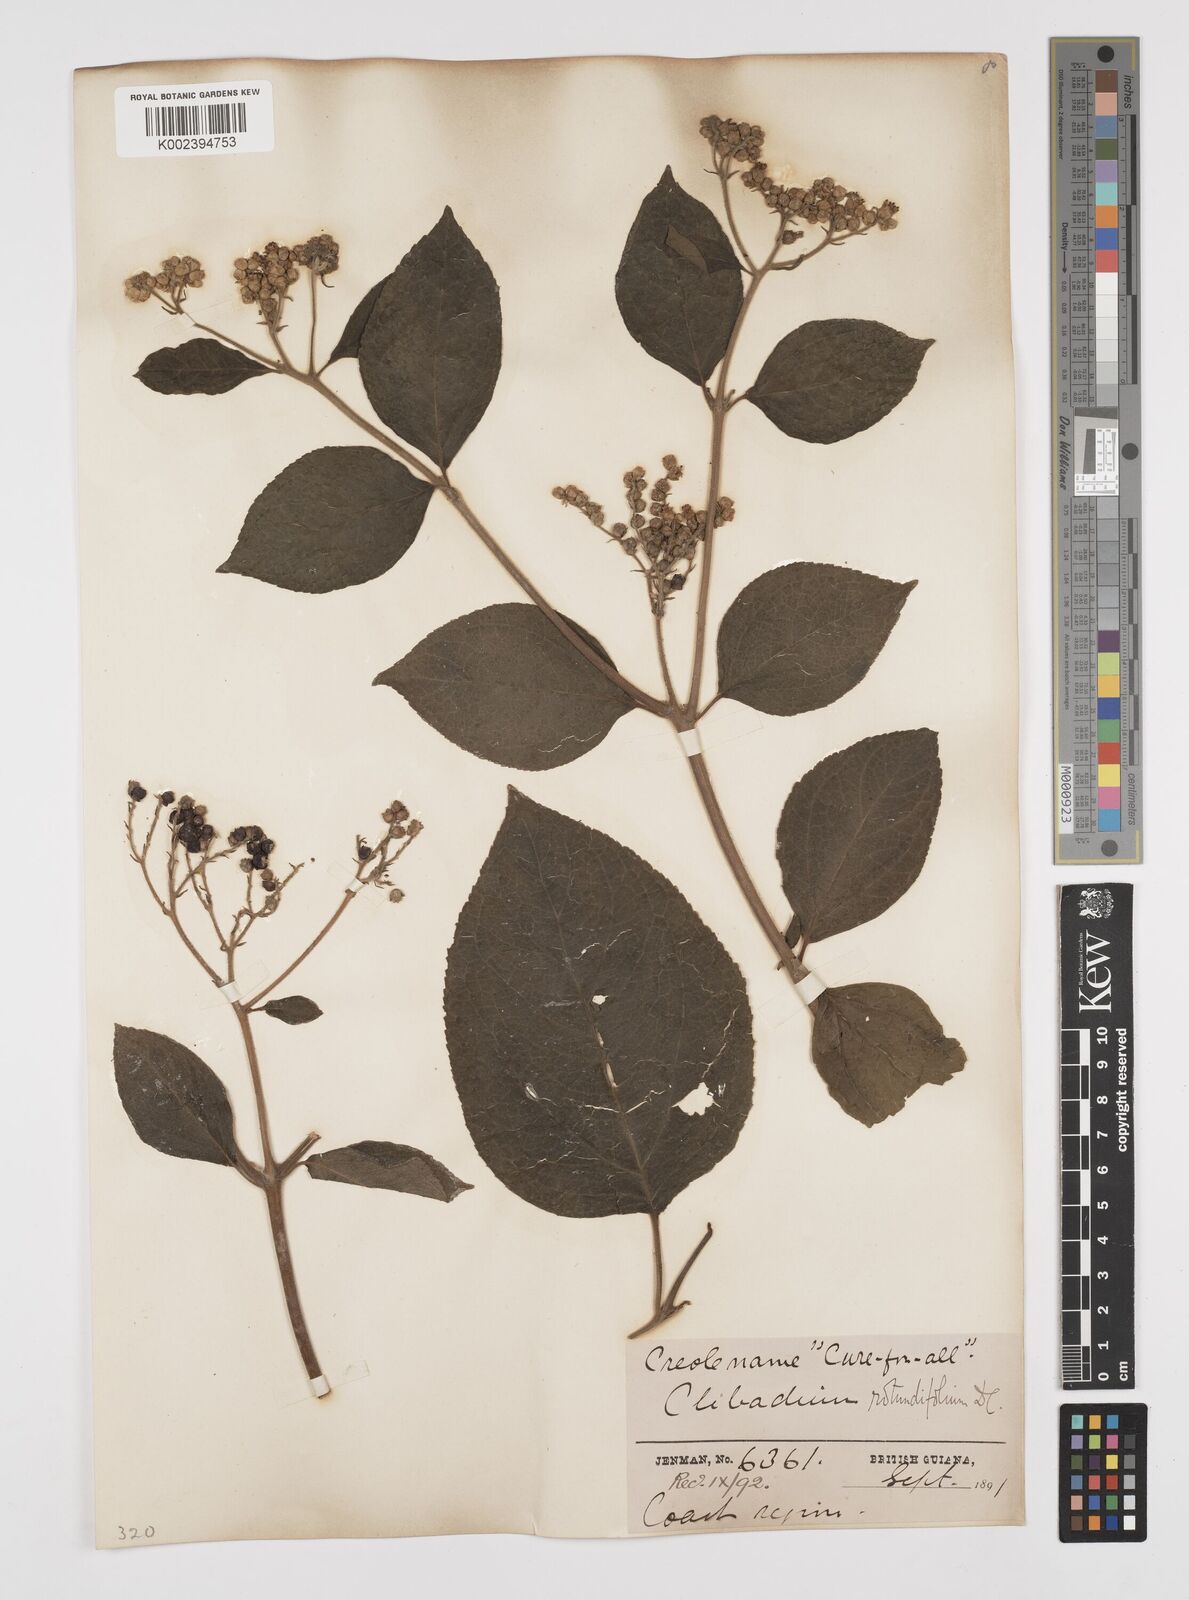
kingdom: Plantae
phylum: Tracheophyta
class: Magnoliopsida
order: Asterales
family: Asteraceae
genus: Clibadium
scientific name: Clibadium surinamense
